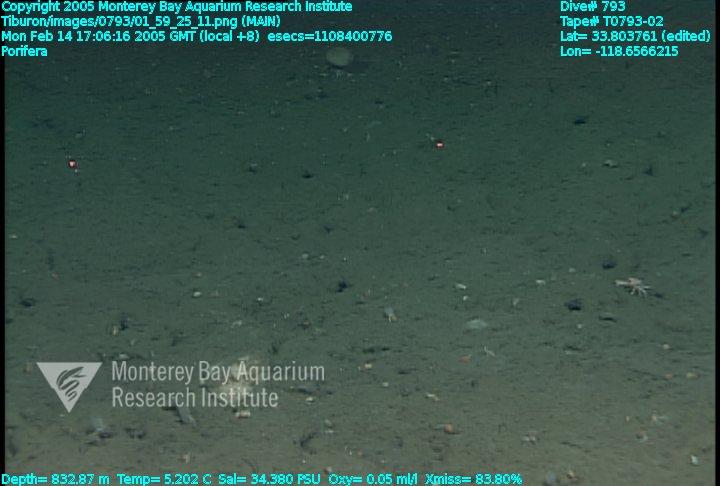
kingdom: Animalia
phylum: Porifera
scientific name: Porifera
